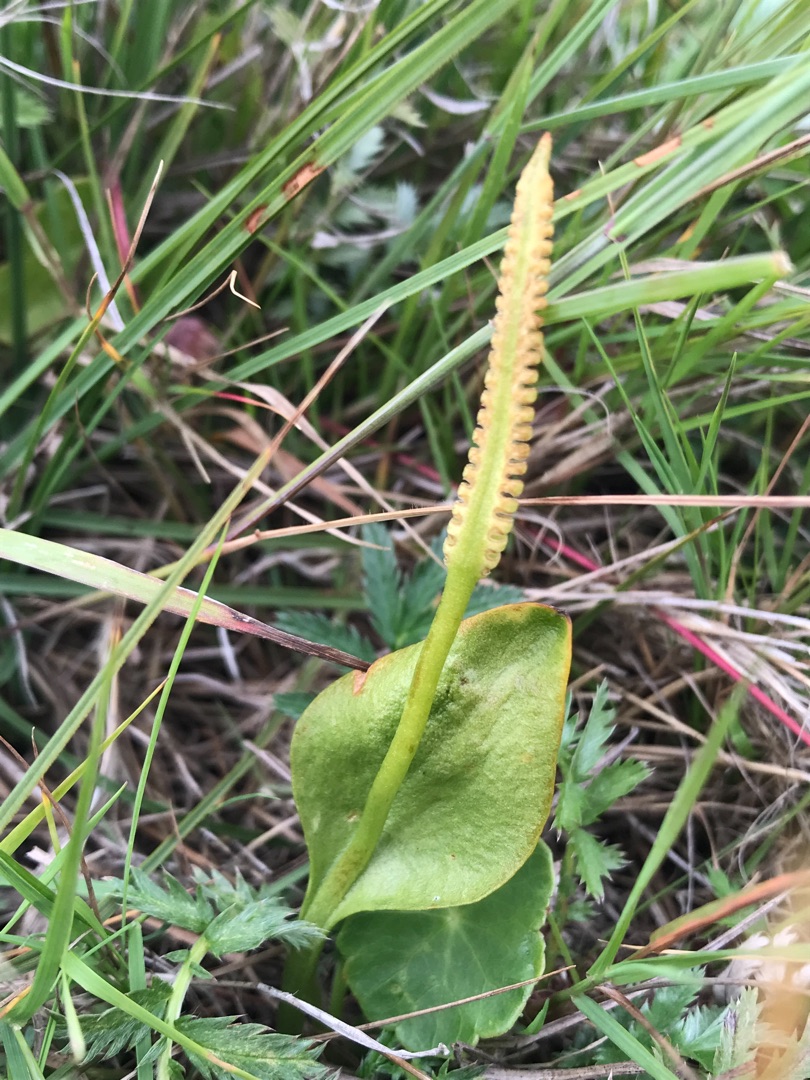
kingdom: Plantae
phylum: Tracheophyta
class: Polypodiopsida
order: Ophioglossales
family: Ophioglossaceae
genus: Ophioglossum
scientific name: Ophioglossum vulgatum
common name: Slangetunge
